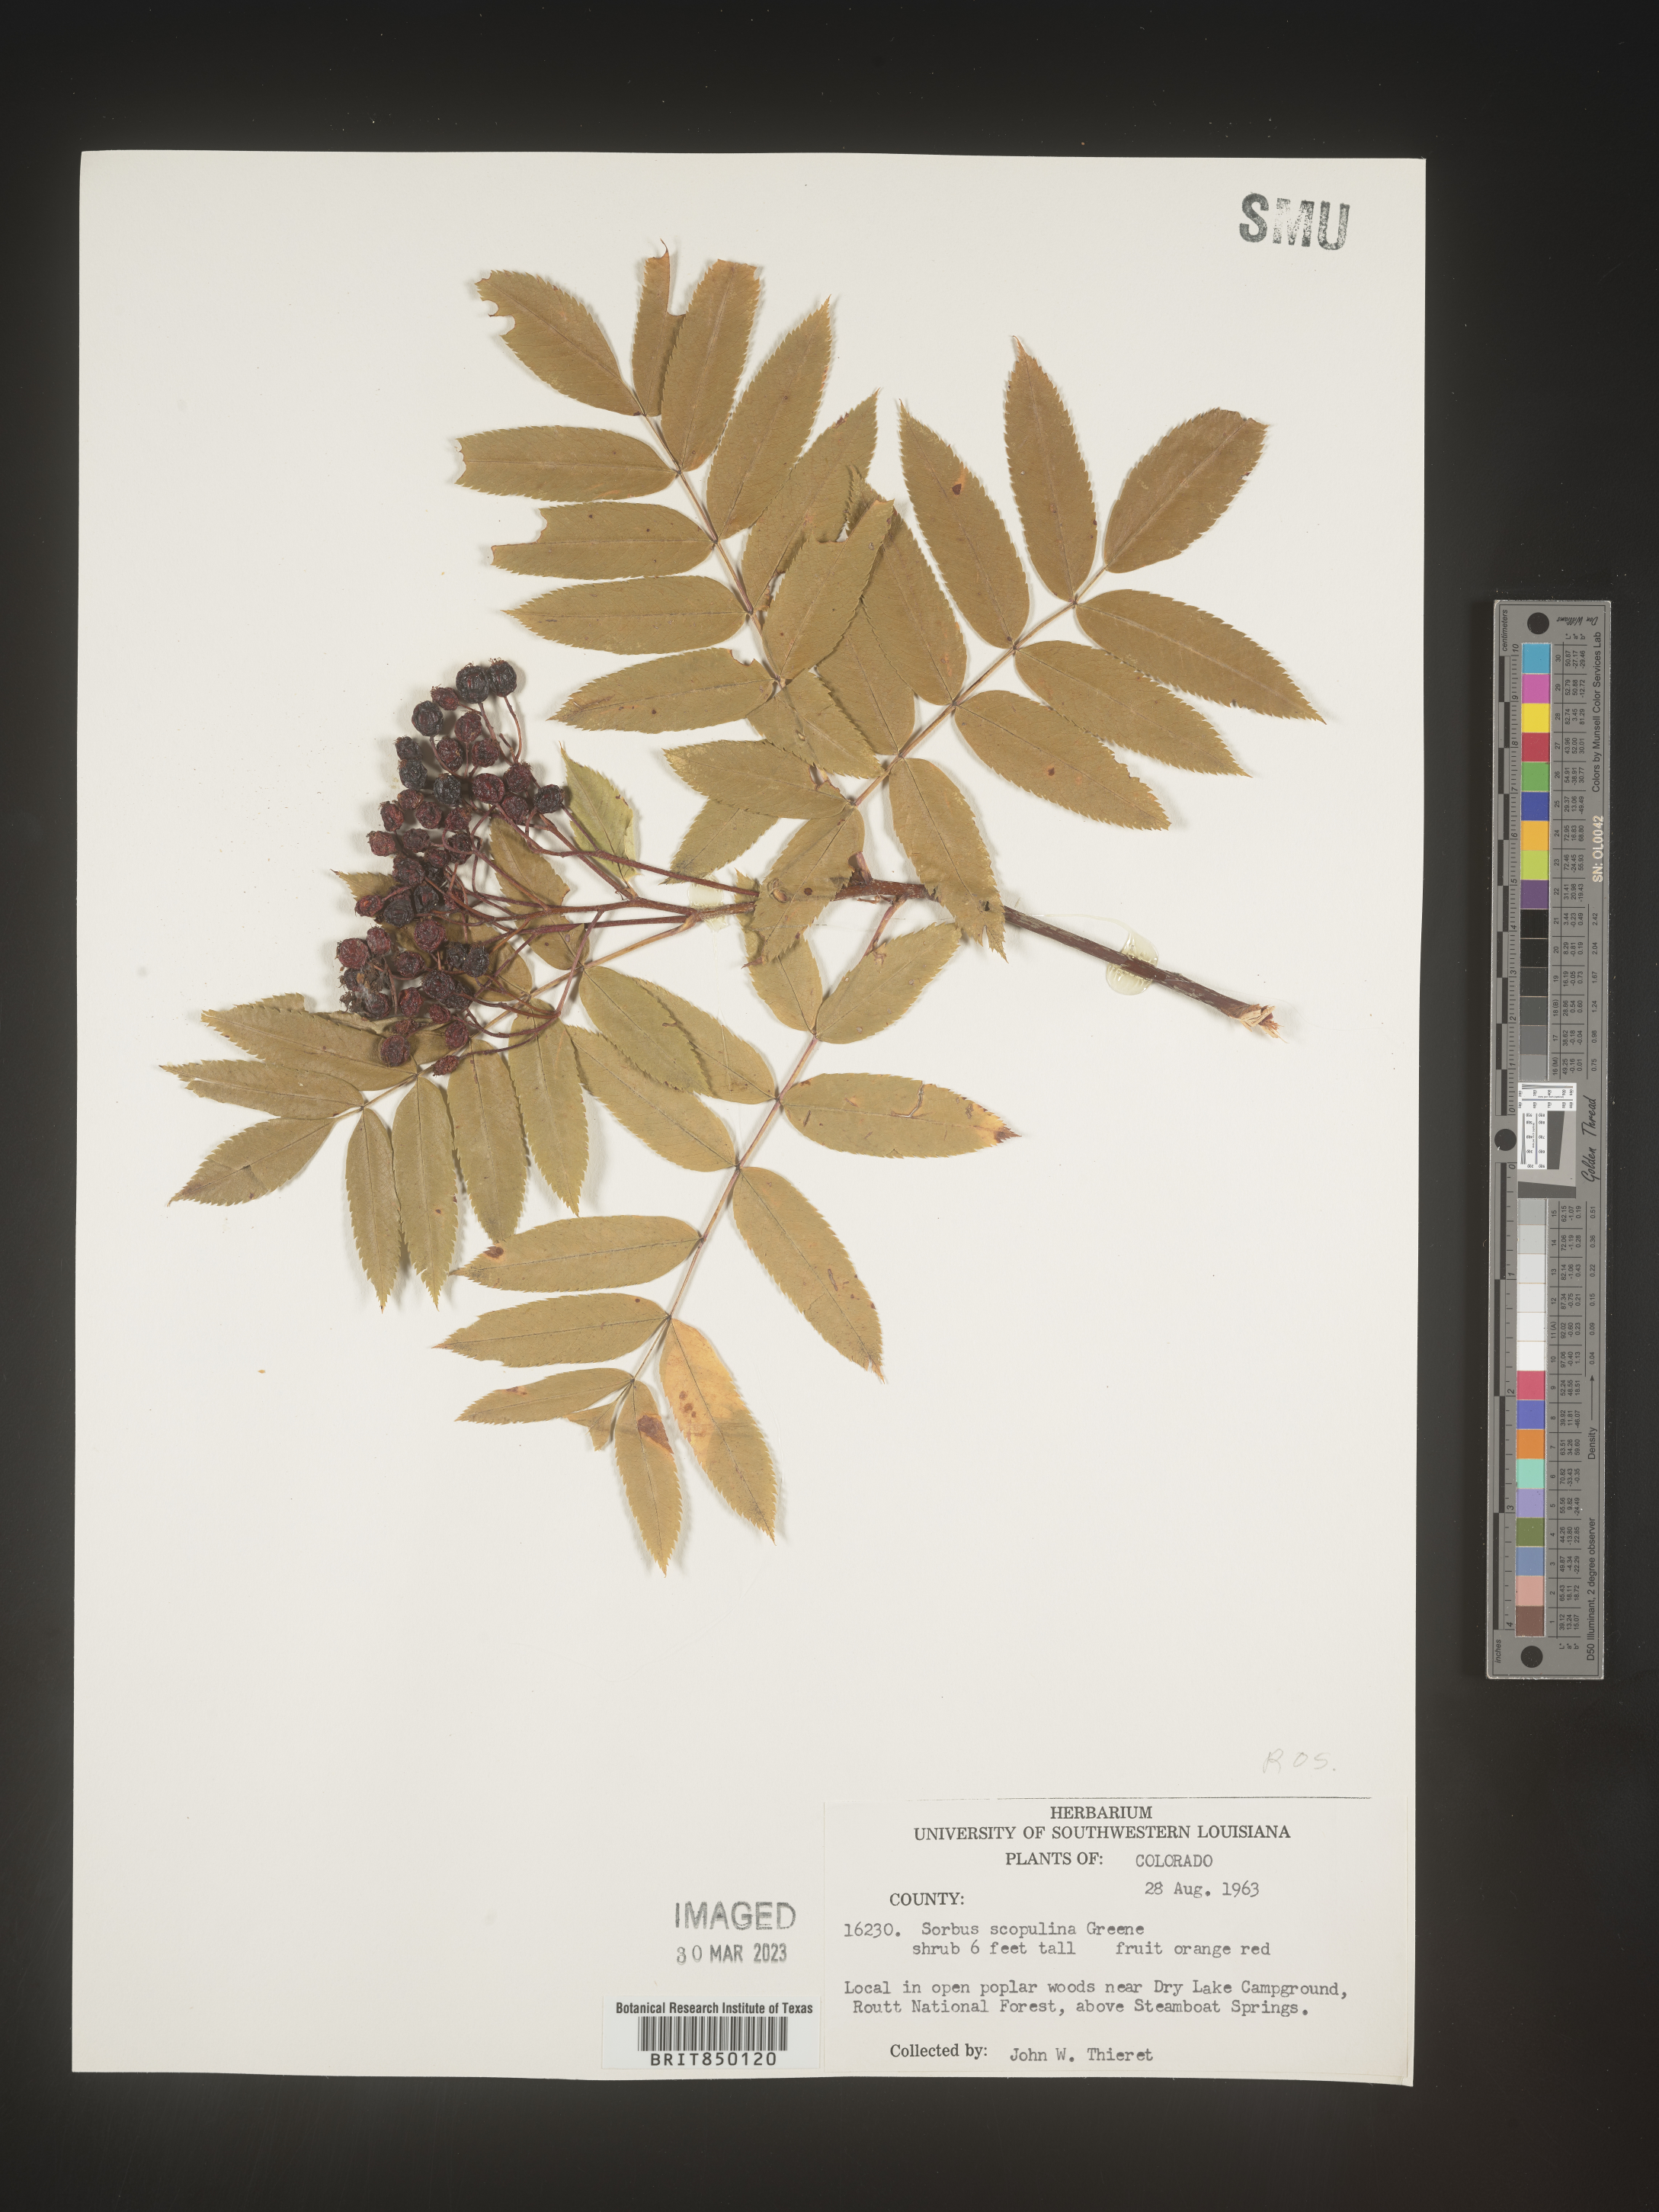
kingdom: Plantae
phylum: Tracheophyta
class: Magnoliopsida
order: Rosales
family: Rosaceae
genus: Sorbus
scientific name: Sorbus scopulina
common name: Greene's mountain-ash
